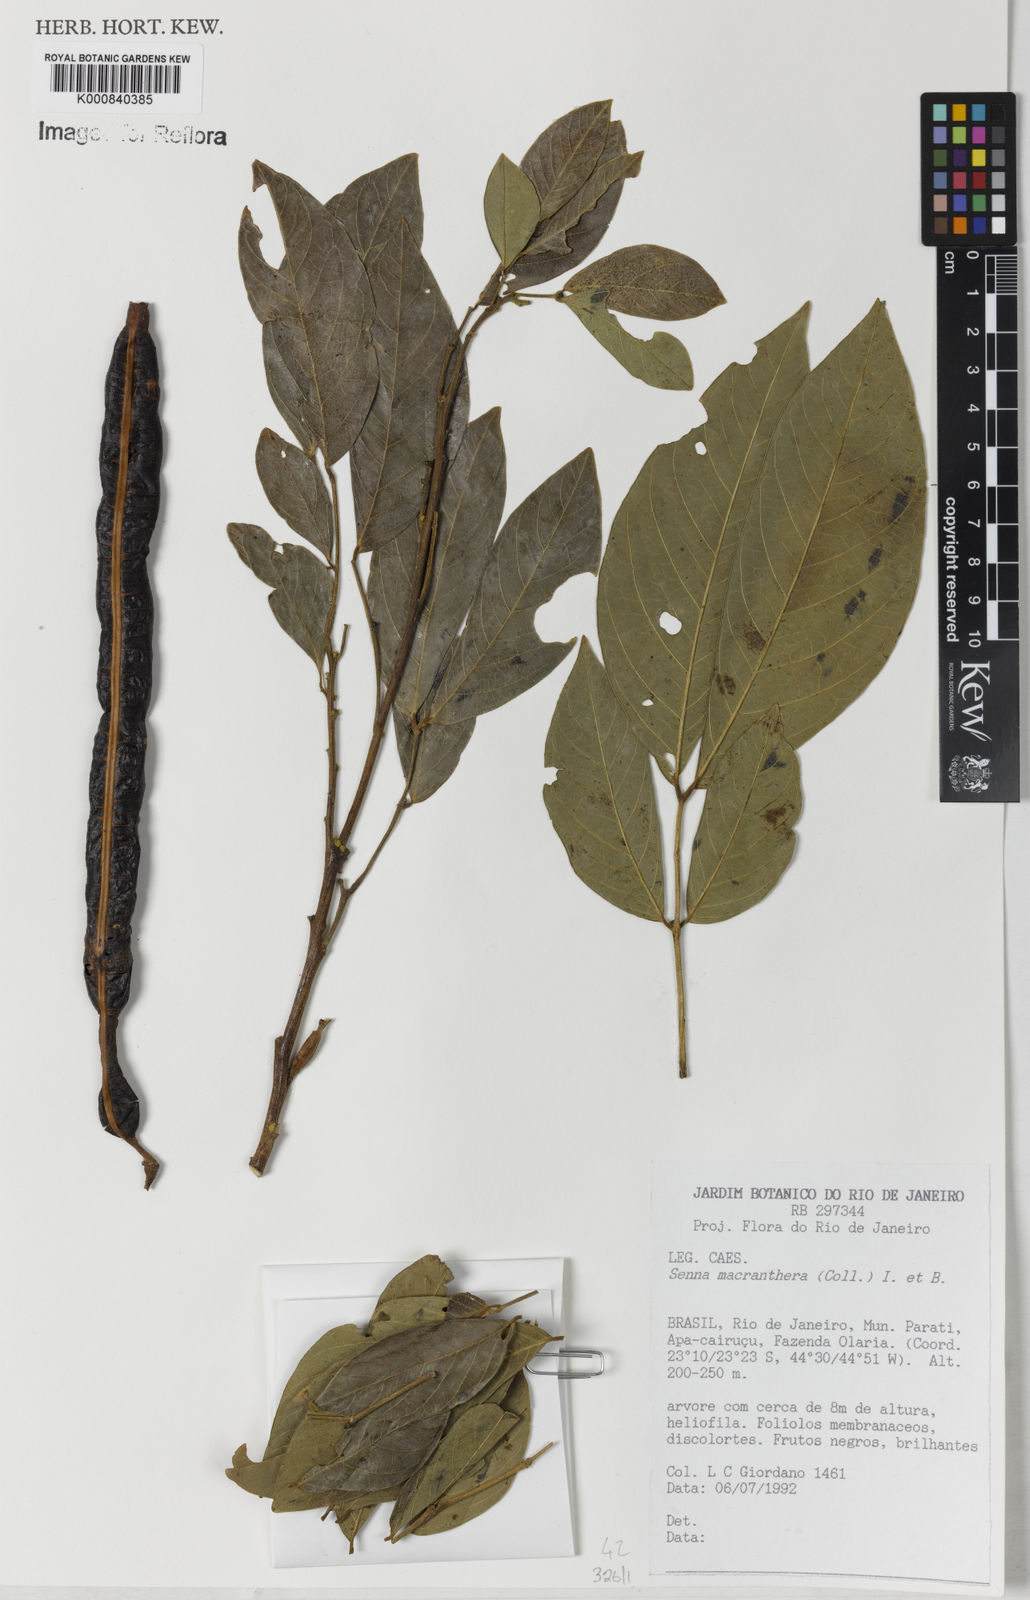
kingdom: Plantae
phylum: Tracheophyta
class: Magnoliopsida
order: Fabales
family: Fabaceae
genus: Senna
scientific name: Senna macranthera
